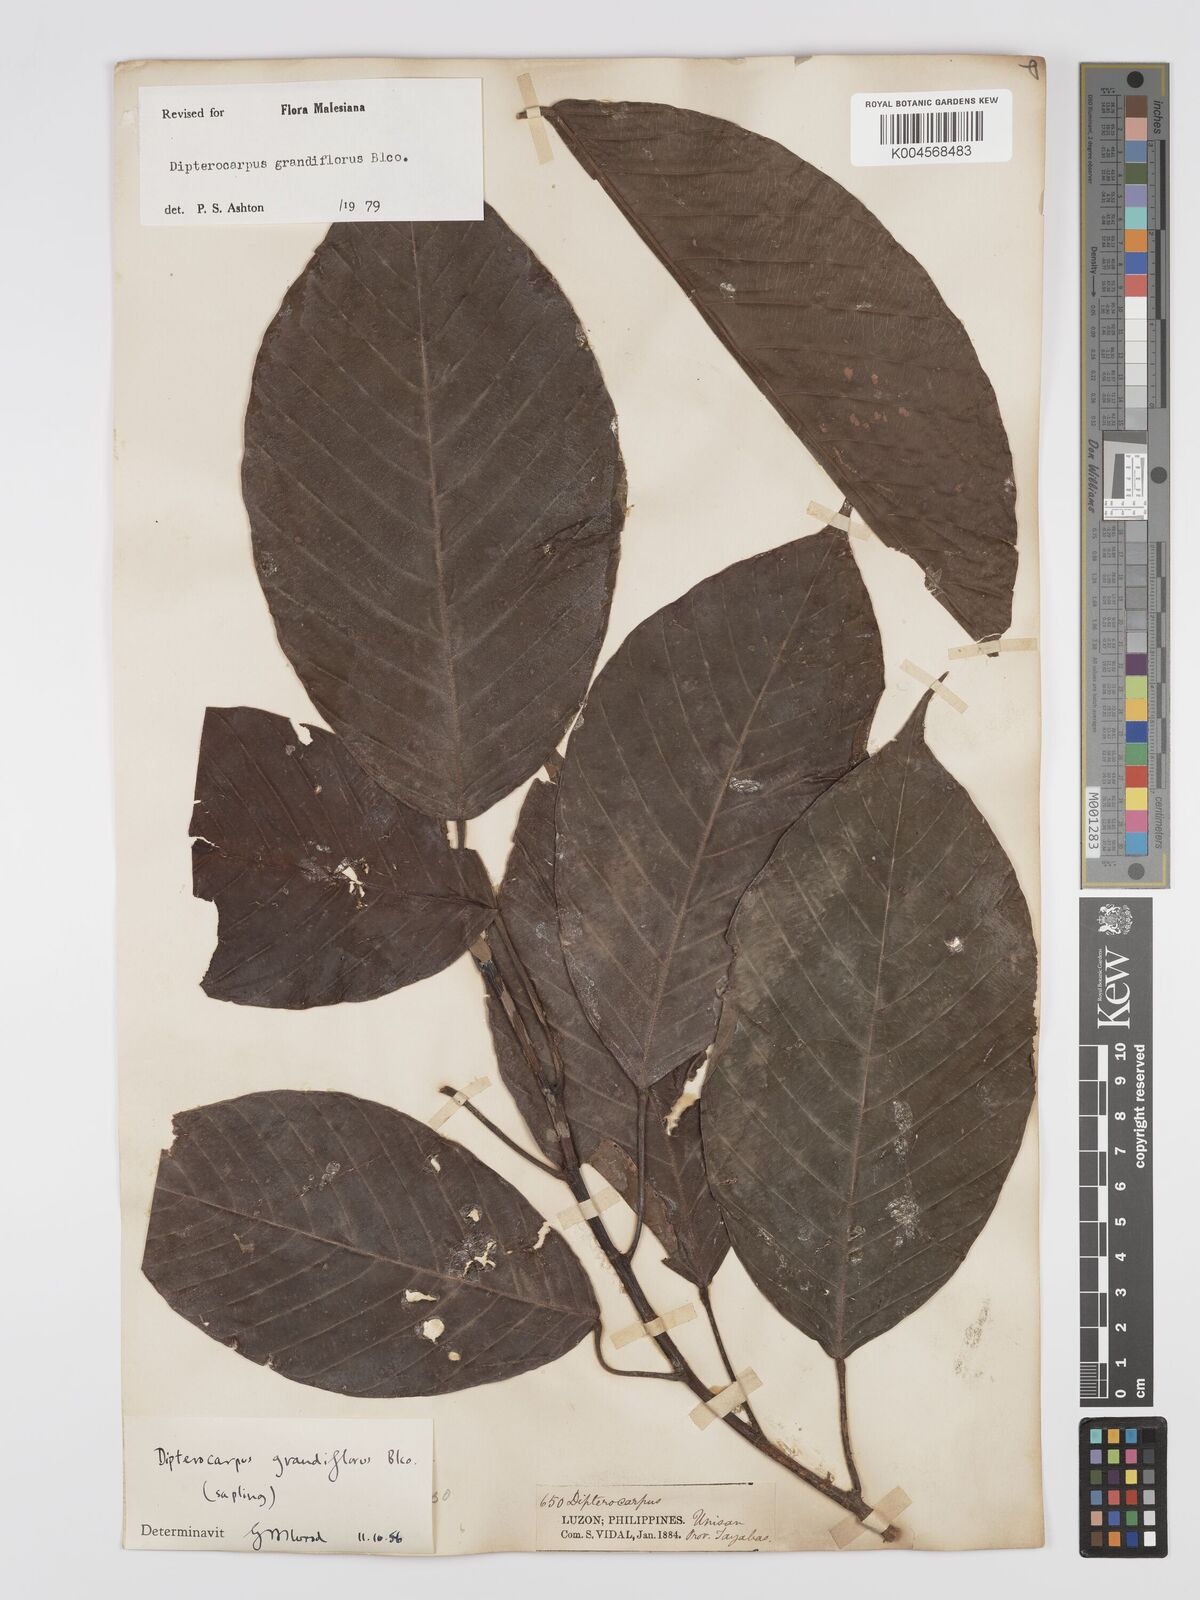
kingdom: Plantae
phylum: Tracheophyta
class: Magnoliopsida
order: Malvales
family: Dipterocarpaceae
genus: Dipterocarpus
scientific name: Dipterocarpus grandiflorus
